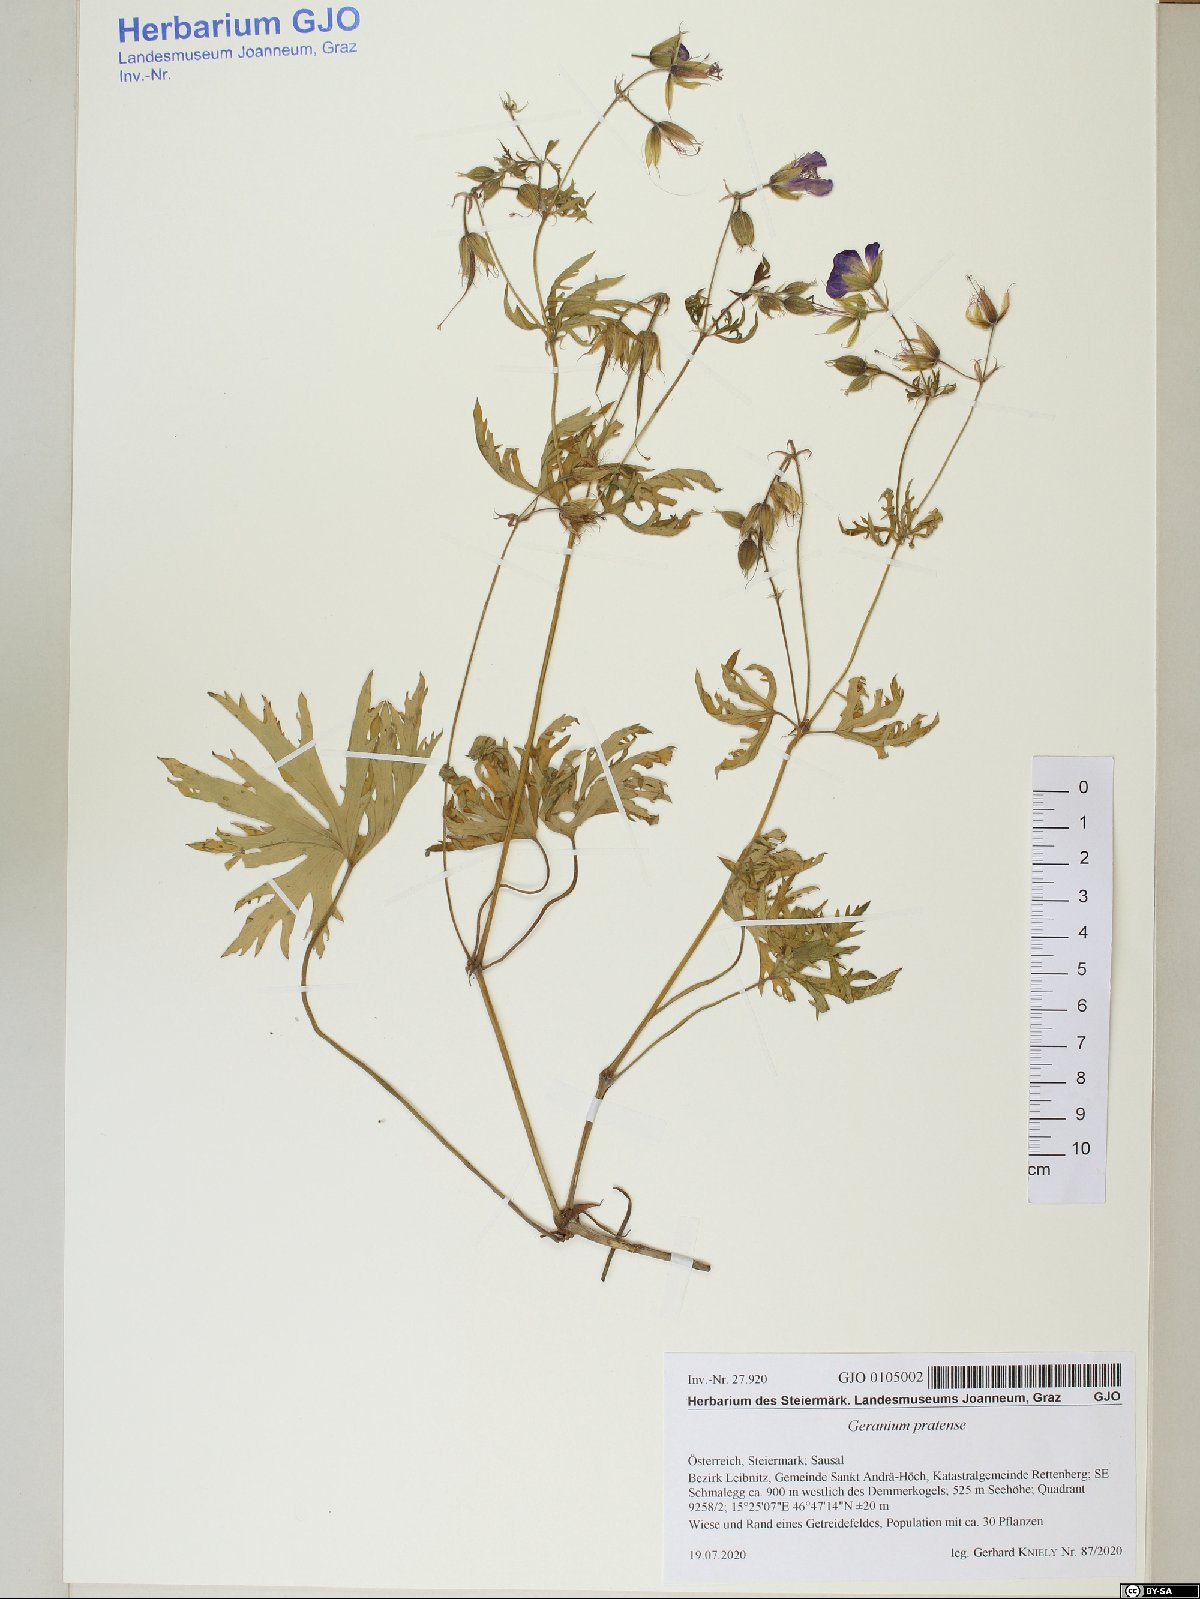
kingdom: Plantae
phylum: Tracheophyta
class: Magnoliopsida
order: Geraniales
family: Geraniaceae
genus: Geranium
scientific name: Geranium pratense
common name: Meadow crane's-bill
